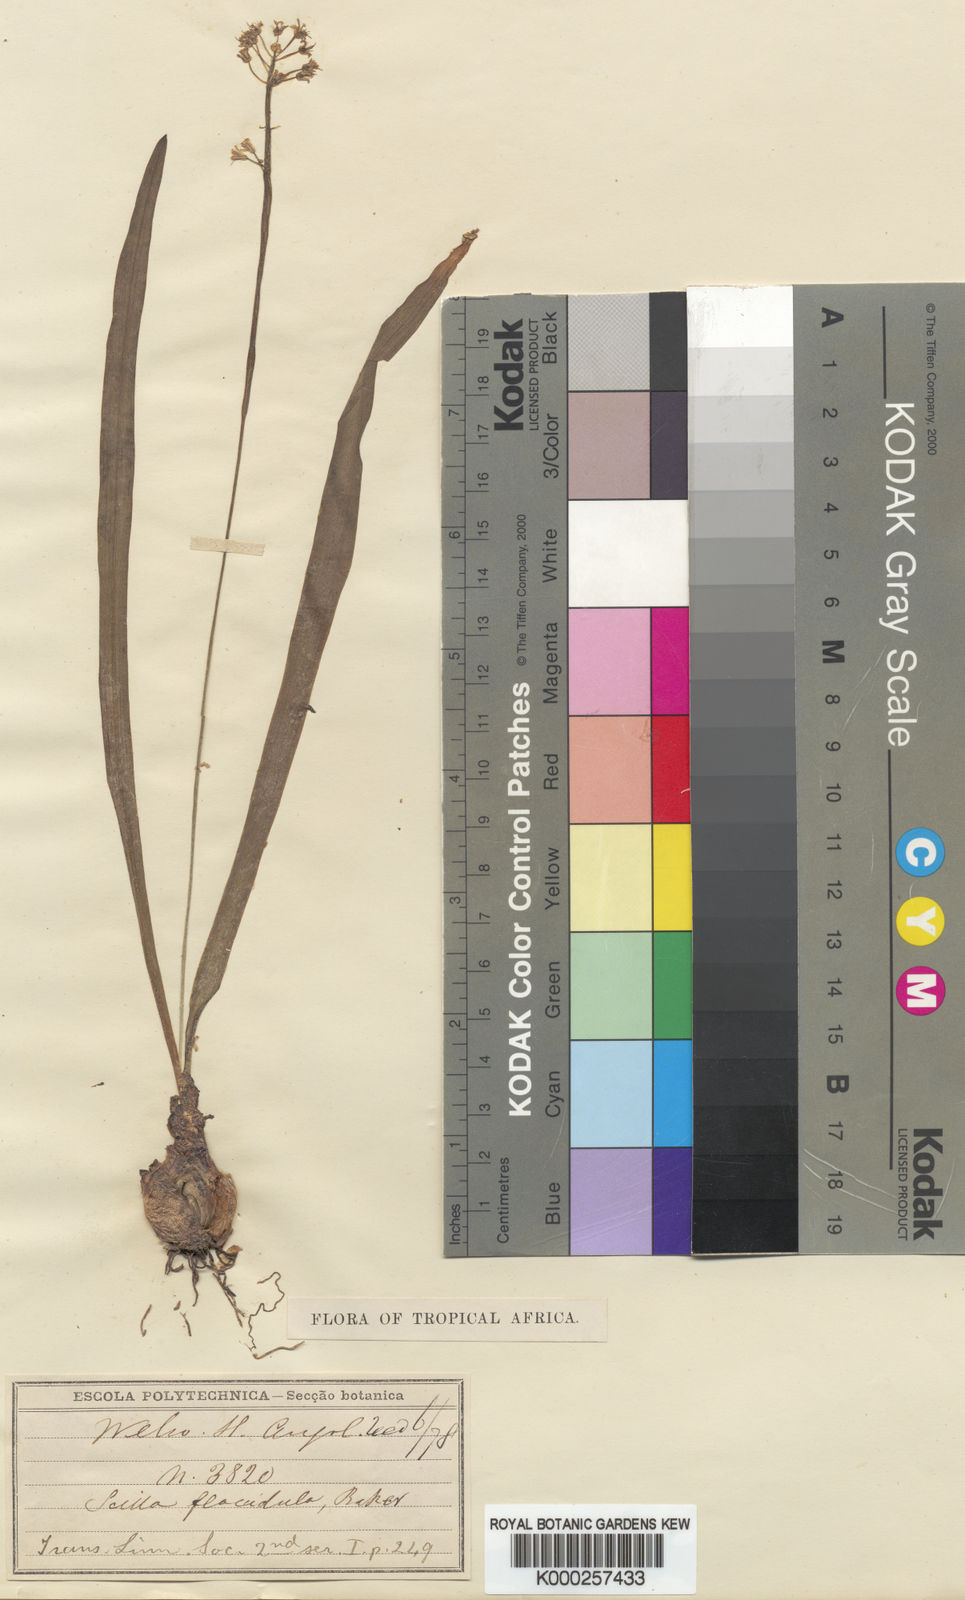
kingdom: Plantae
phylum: Tracheophyta
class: Liliopsida
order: Asparagales
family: Asparagaceae
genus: Scilla
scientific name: Scilla flaccidula
